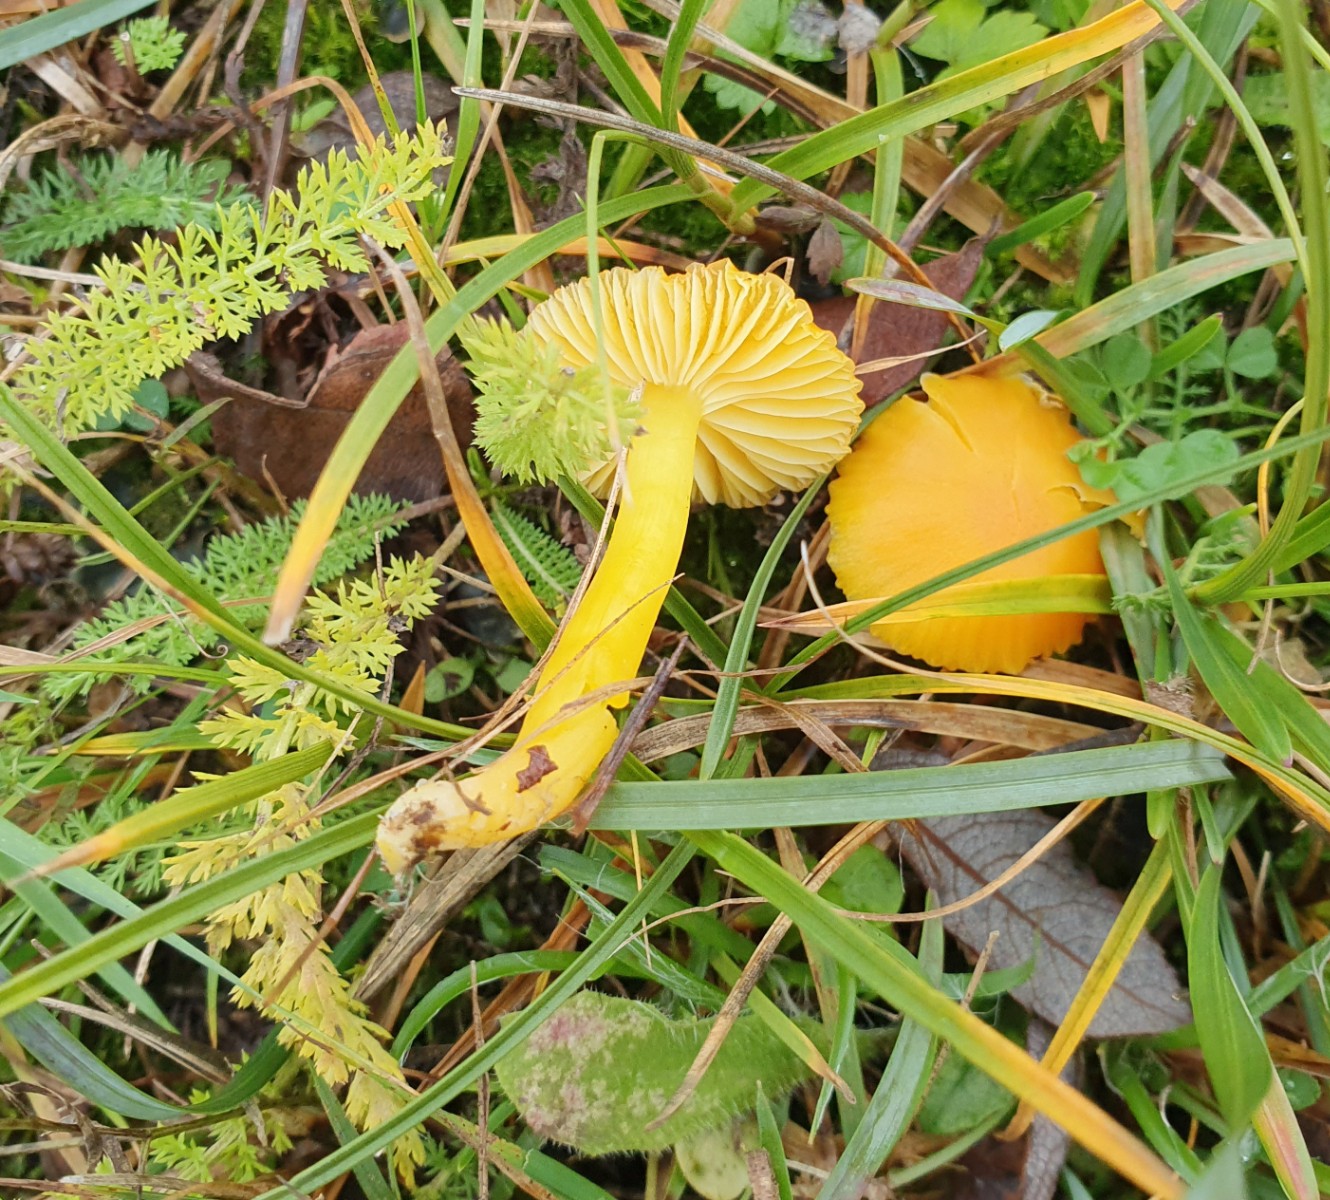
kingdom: Fungi
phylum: Basidiomycota
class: Agaricomycetes
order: Agaricales
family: Hygrophoraceae
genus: Hygrocybe
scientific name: Hygrocybe ceracea
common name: voksgul vokshat
